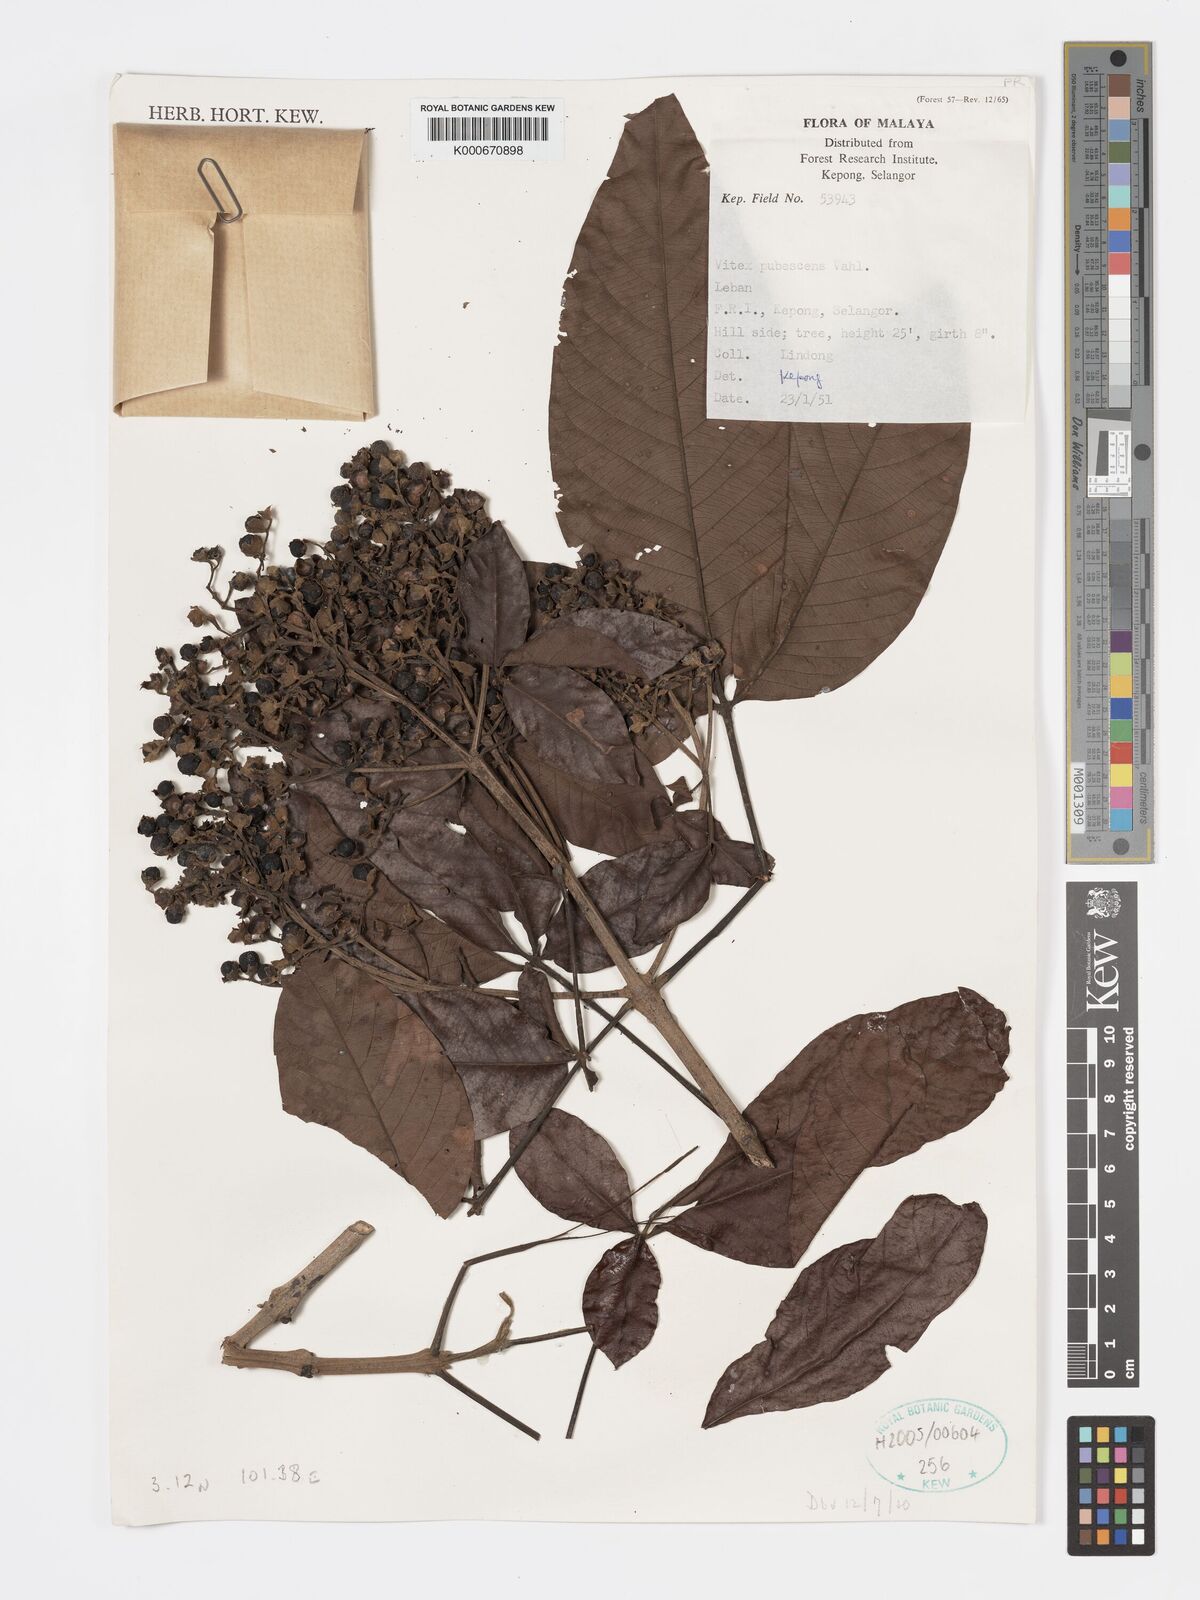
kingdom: Plantae
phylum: Tracheophyta
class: Magnoliopsida
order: Lamiales
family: Lamiaceae
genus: Vitex
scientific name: Vitex pinnata
